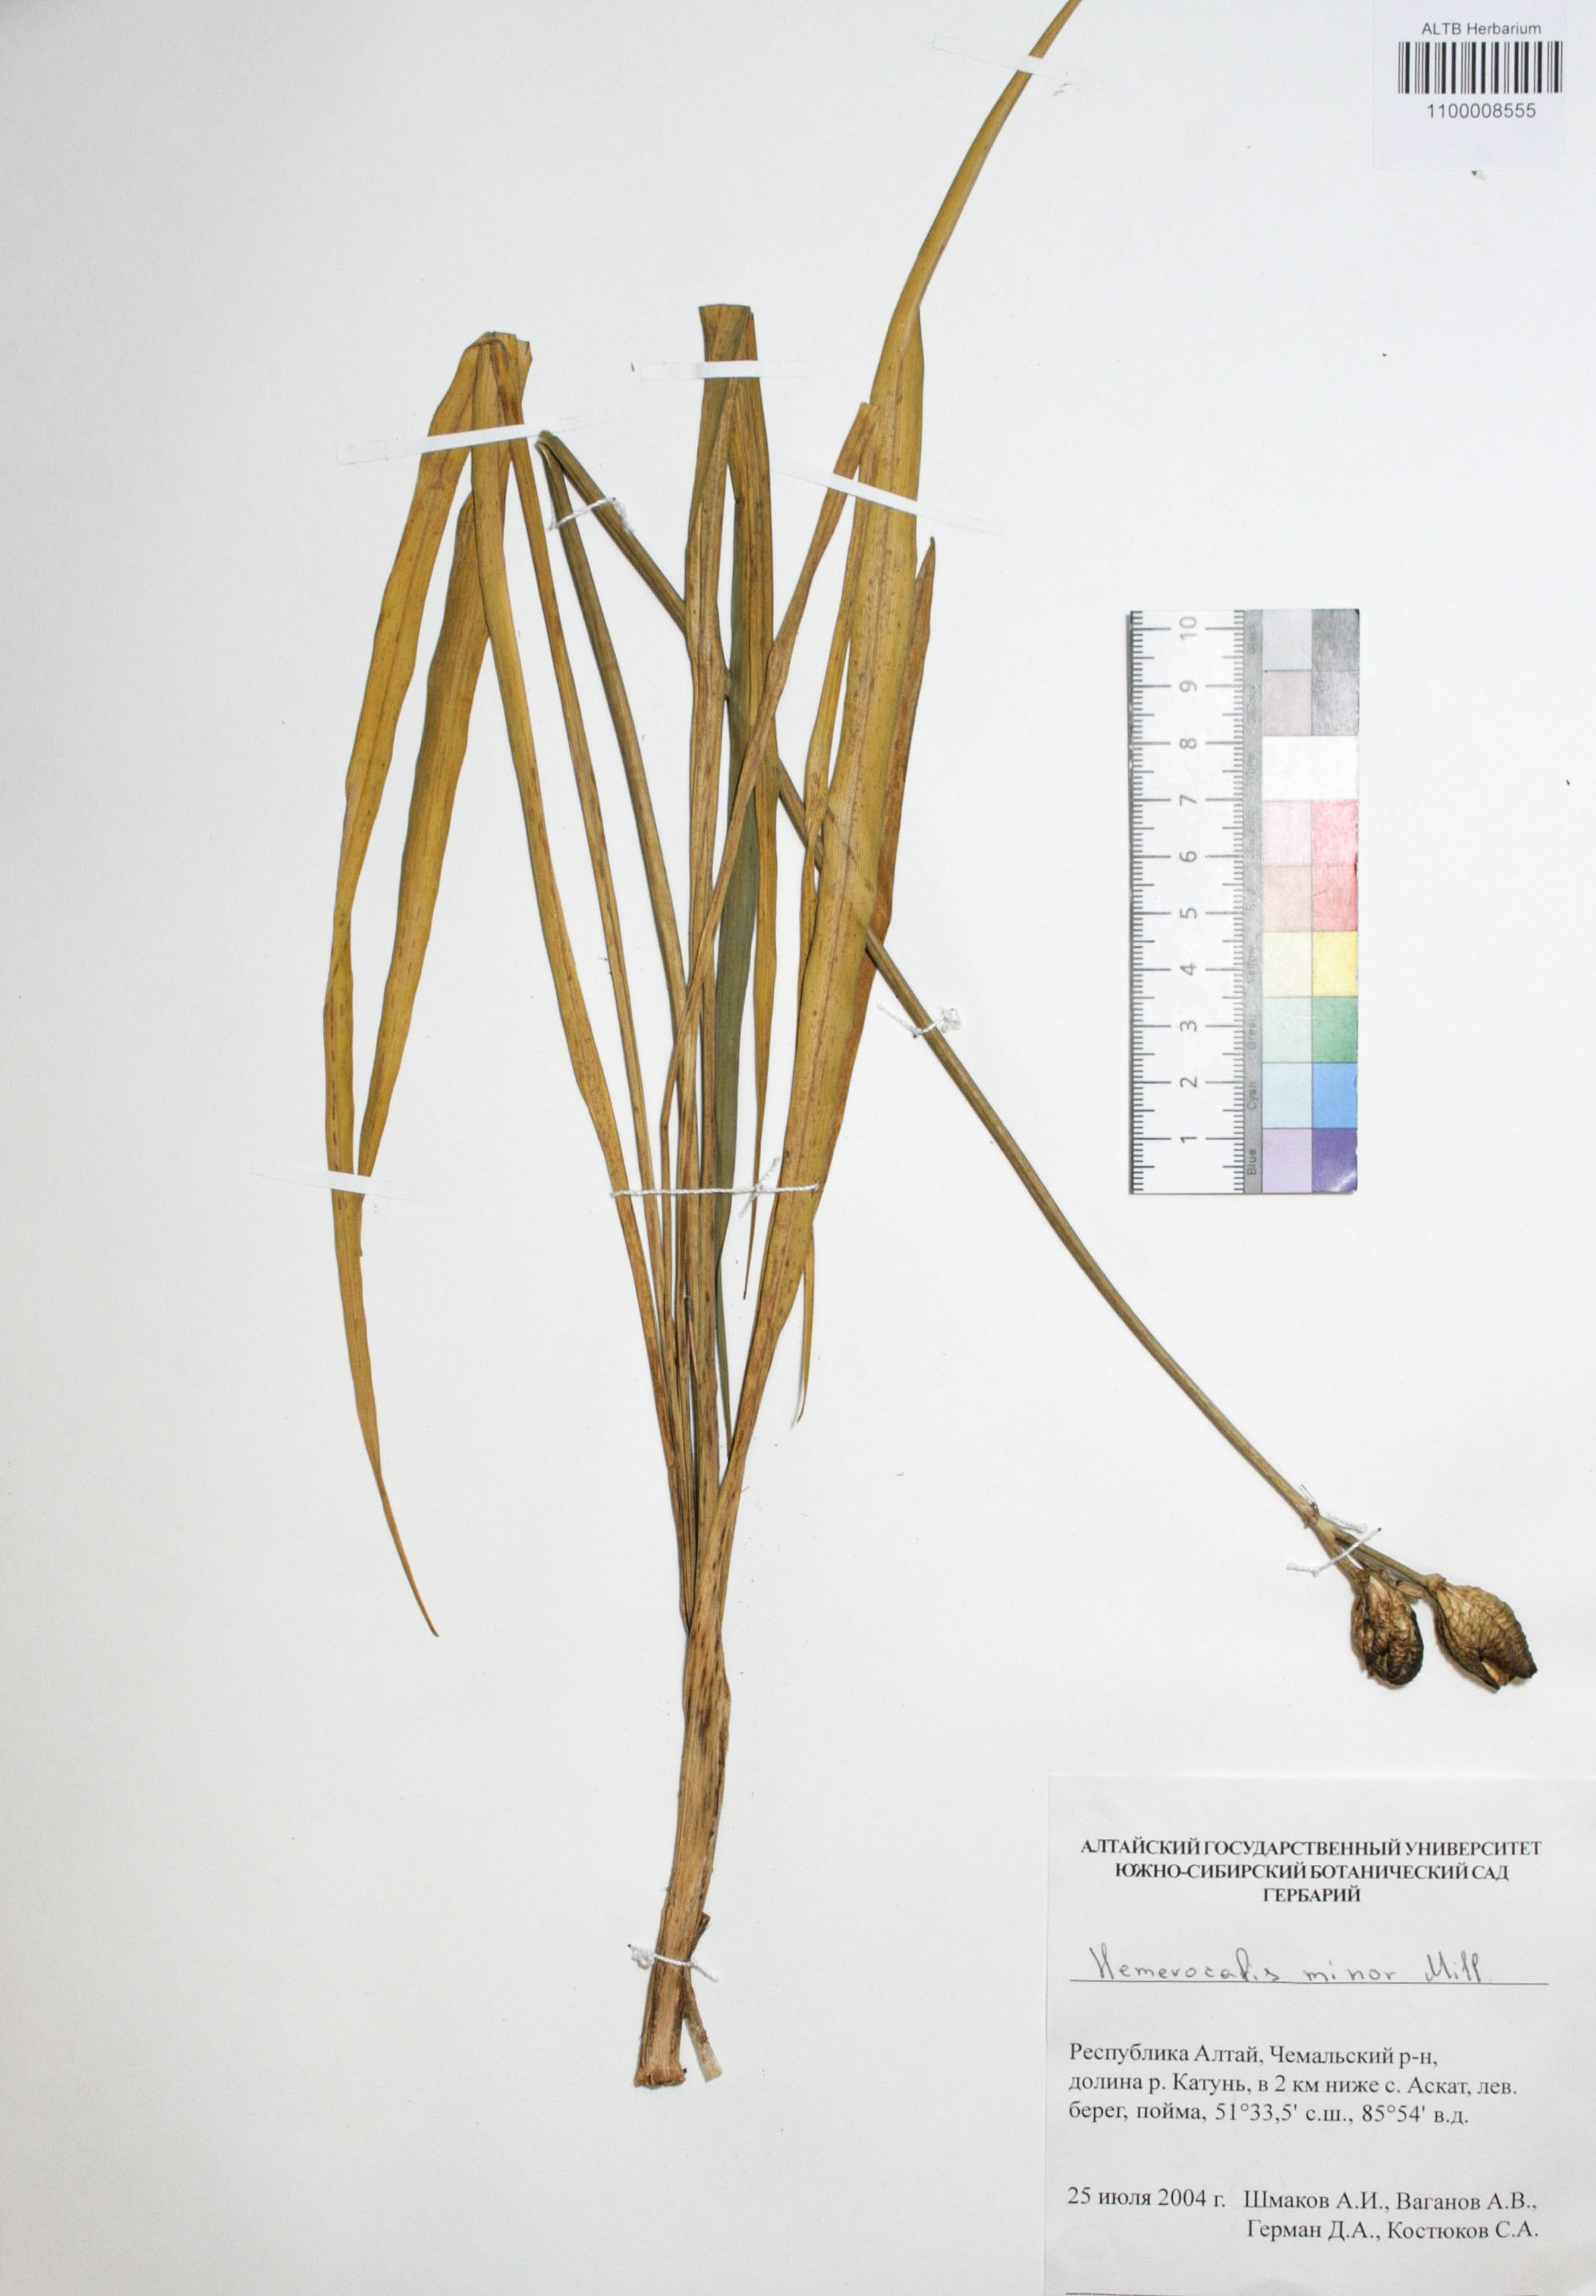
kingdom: Plantae
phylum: Tracheophyta
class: Liliopsida
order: Asparagales
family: Asphodelaceae
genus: Hemerocallis
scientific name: Hemerocallis minor
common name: Small daylily
